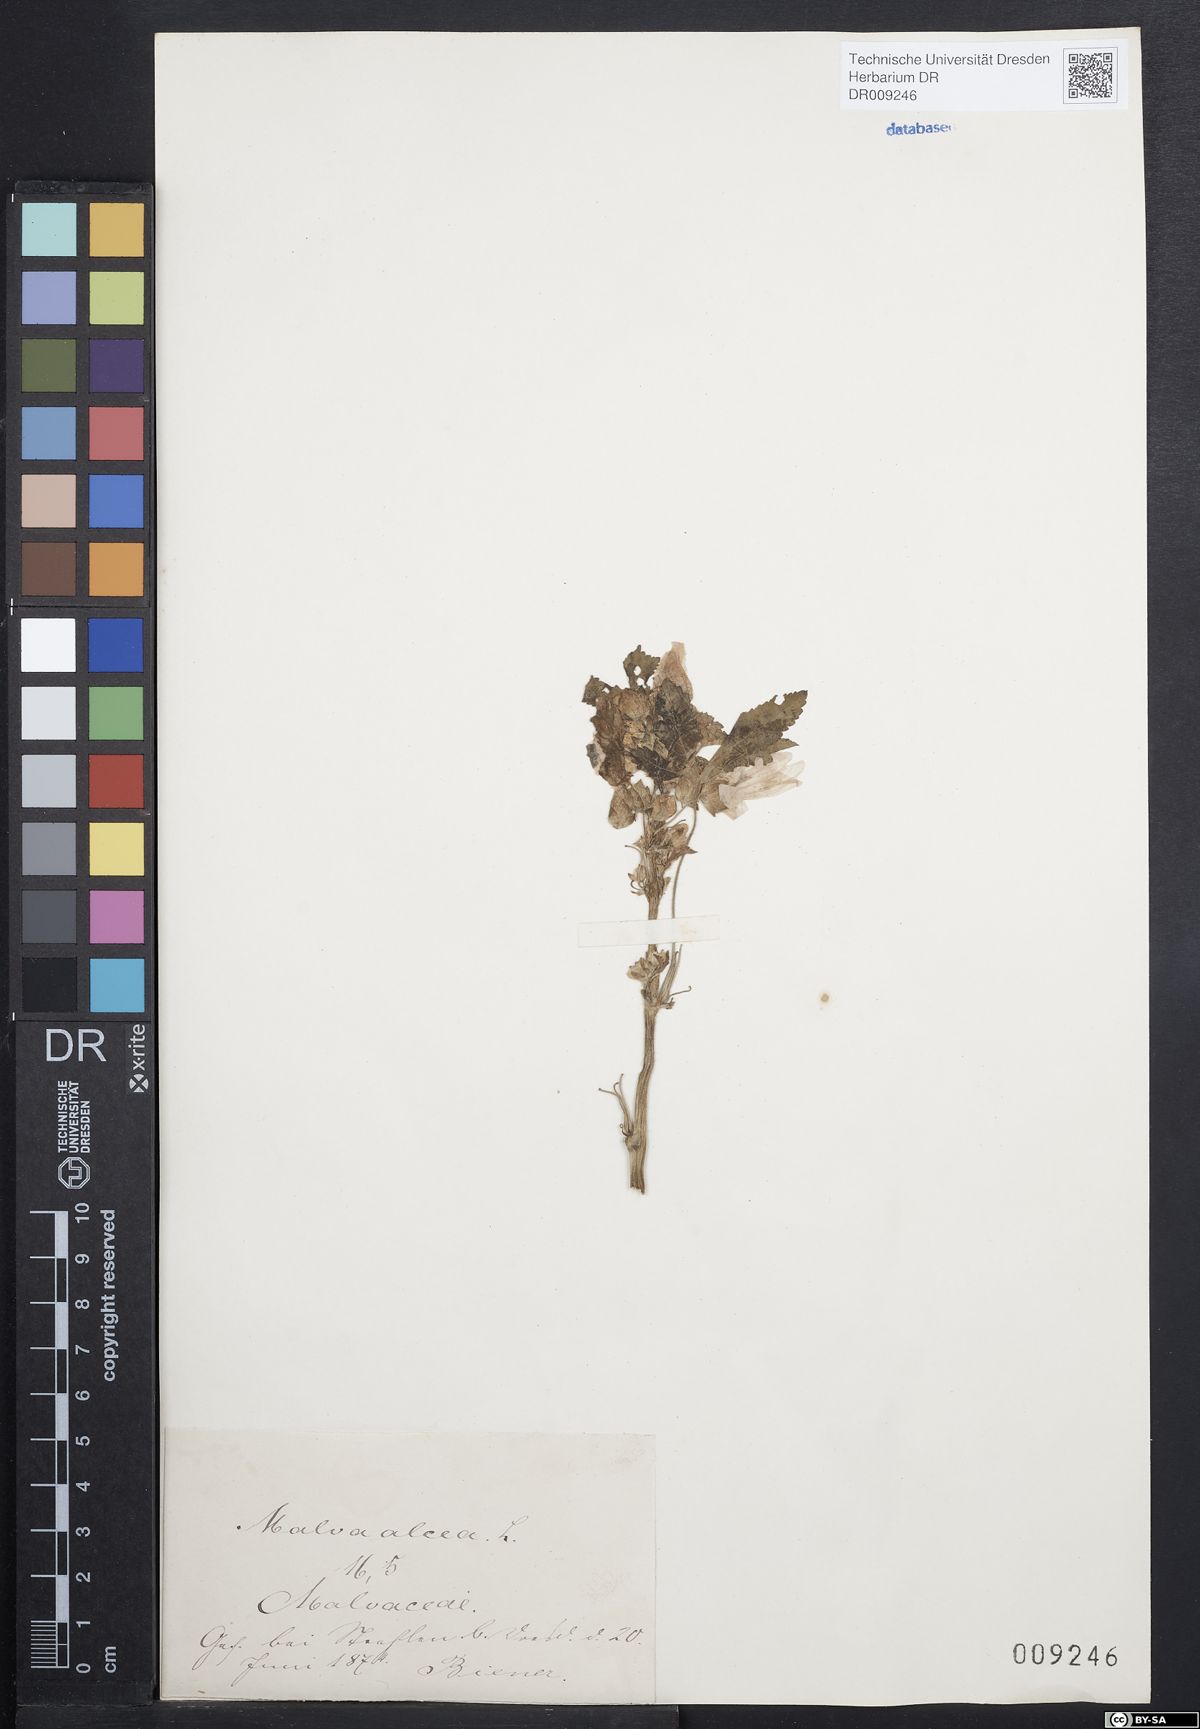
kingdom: Plantae
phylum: Tracheophyta
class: Magnoliopsida
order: Malvales
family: Malvaceae
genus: Malva
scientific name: Malva alcea
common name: Greater musk-mallow
